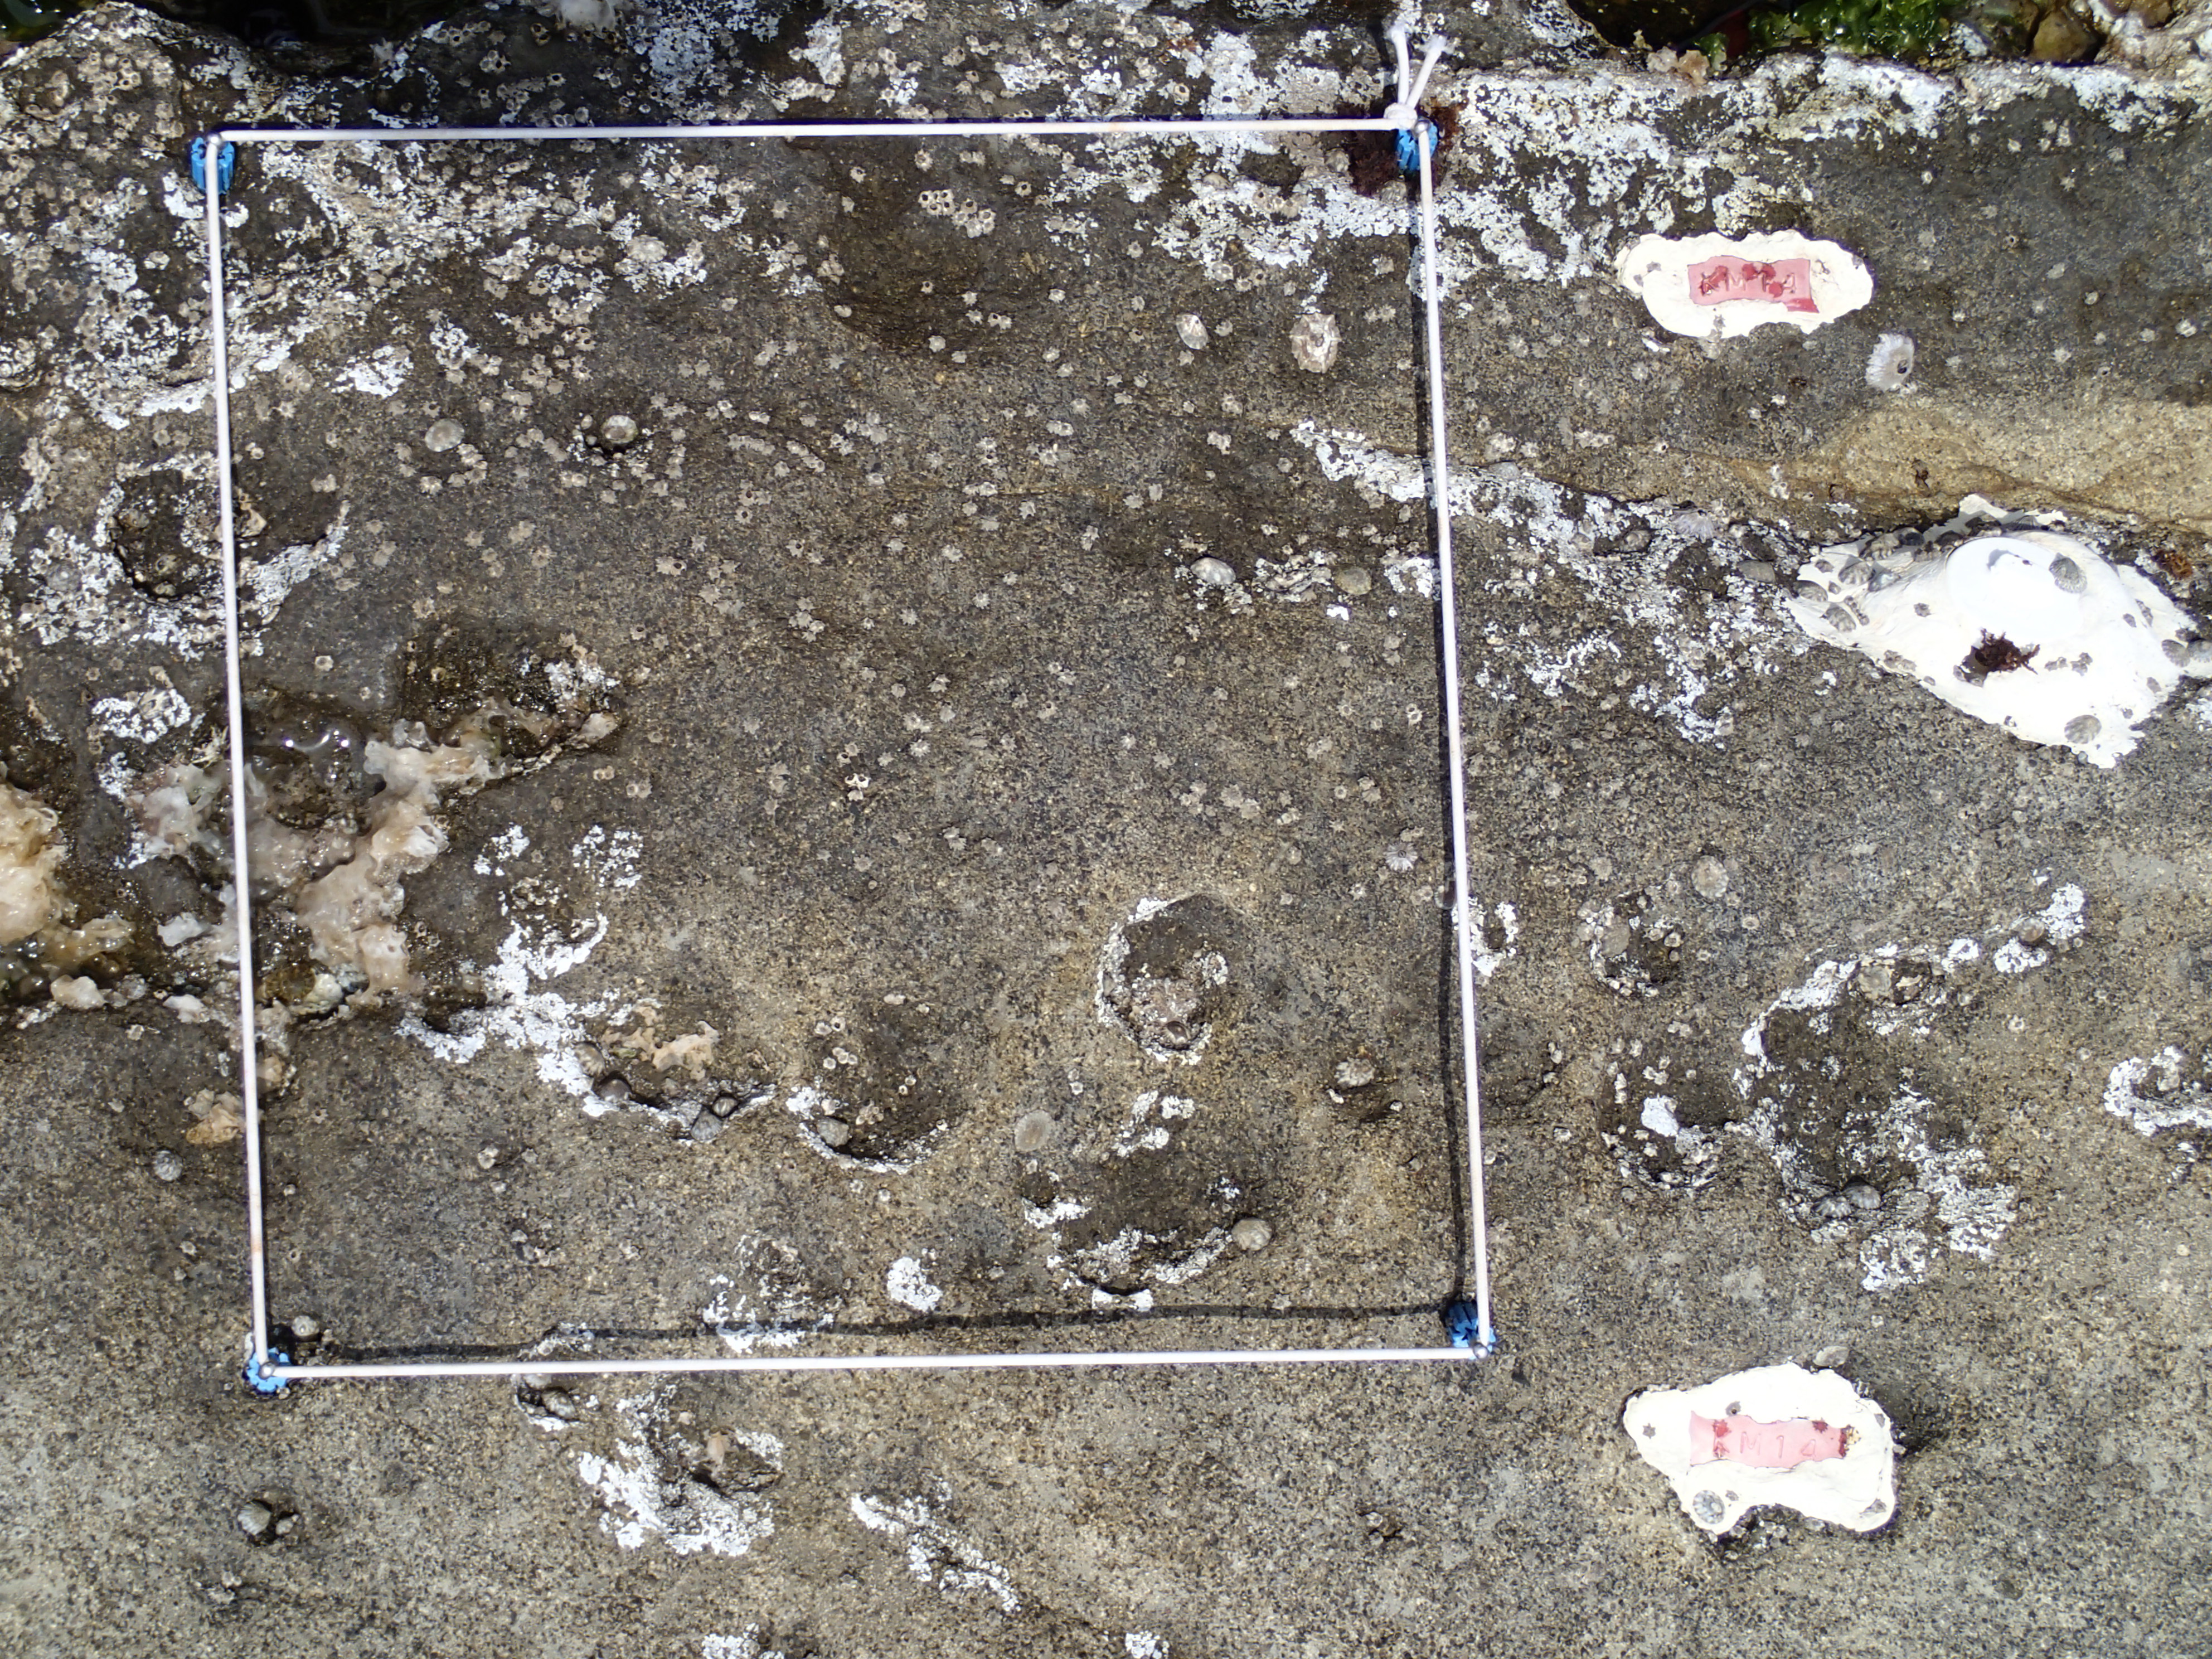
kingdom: Animalia
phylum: Arthropoda
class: Maxillopoda
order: Sessilia
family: Chthamalidae
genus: Chthamalus
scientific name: Chthamalus challengeri
